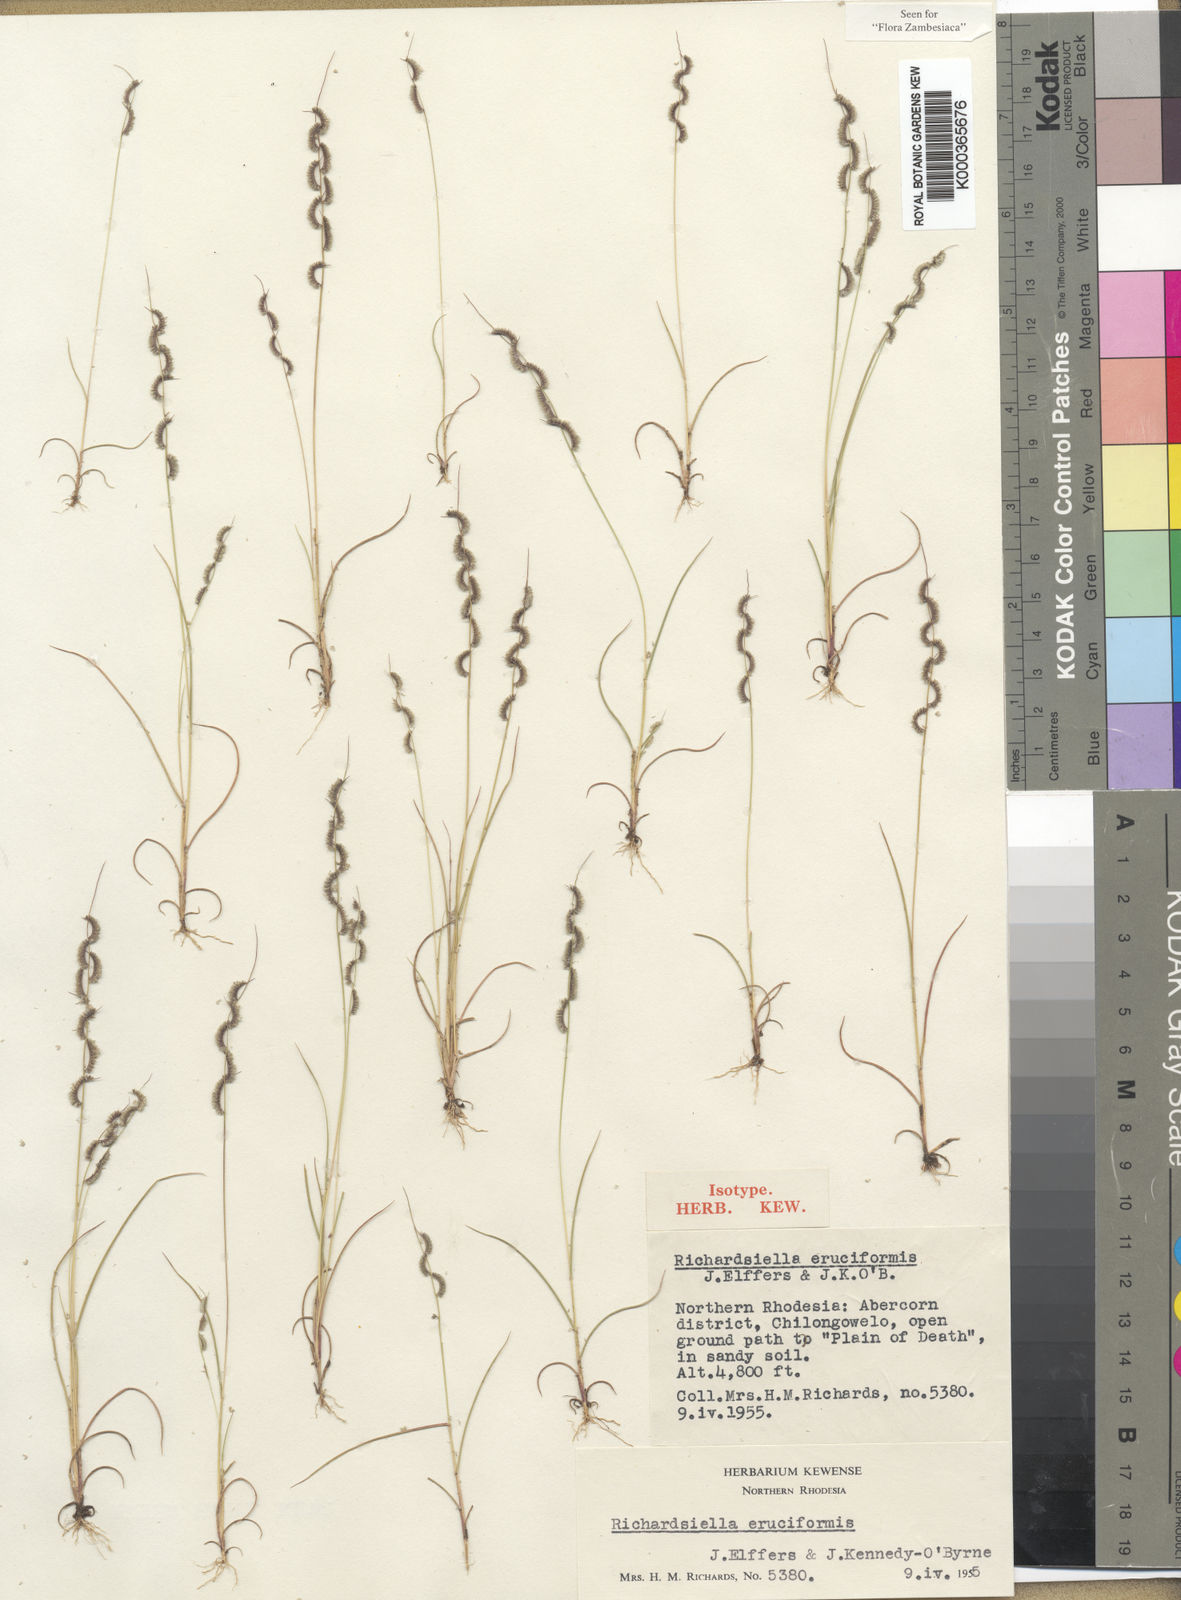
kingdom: Plantae
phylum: Tracheophyta
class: Liliopsida
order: Poales
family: Poaceae
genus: Richardsiella
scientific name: Richardsiella eruciformis
